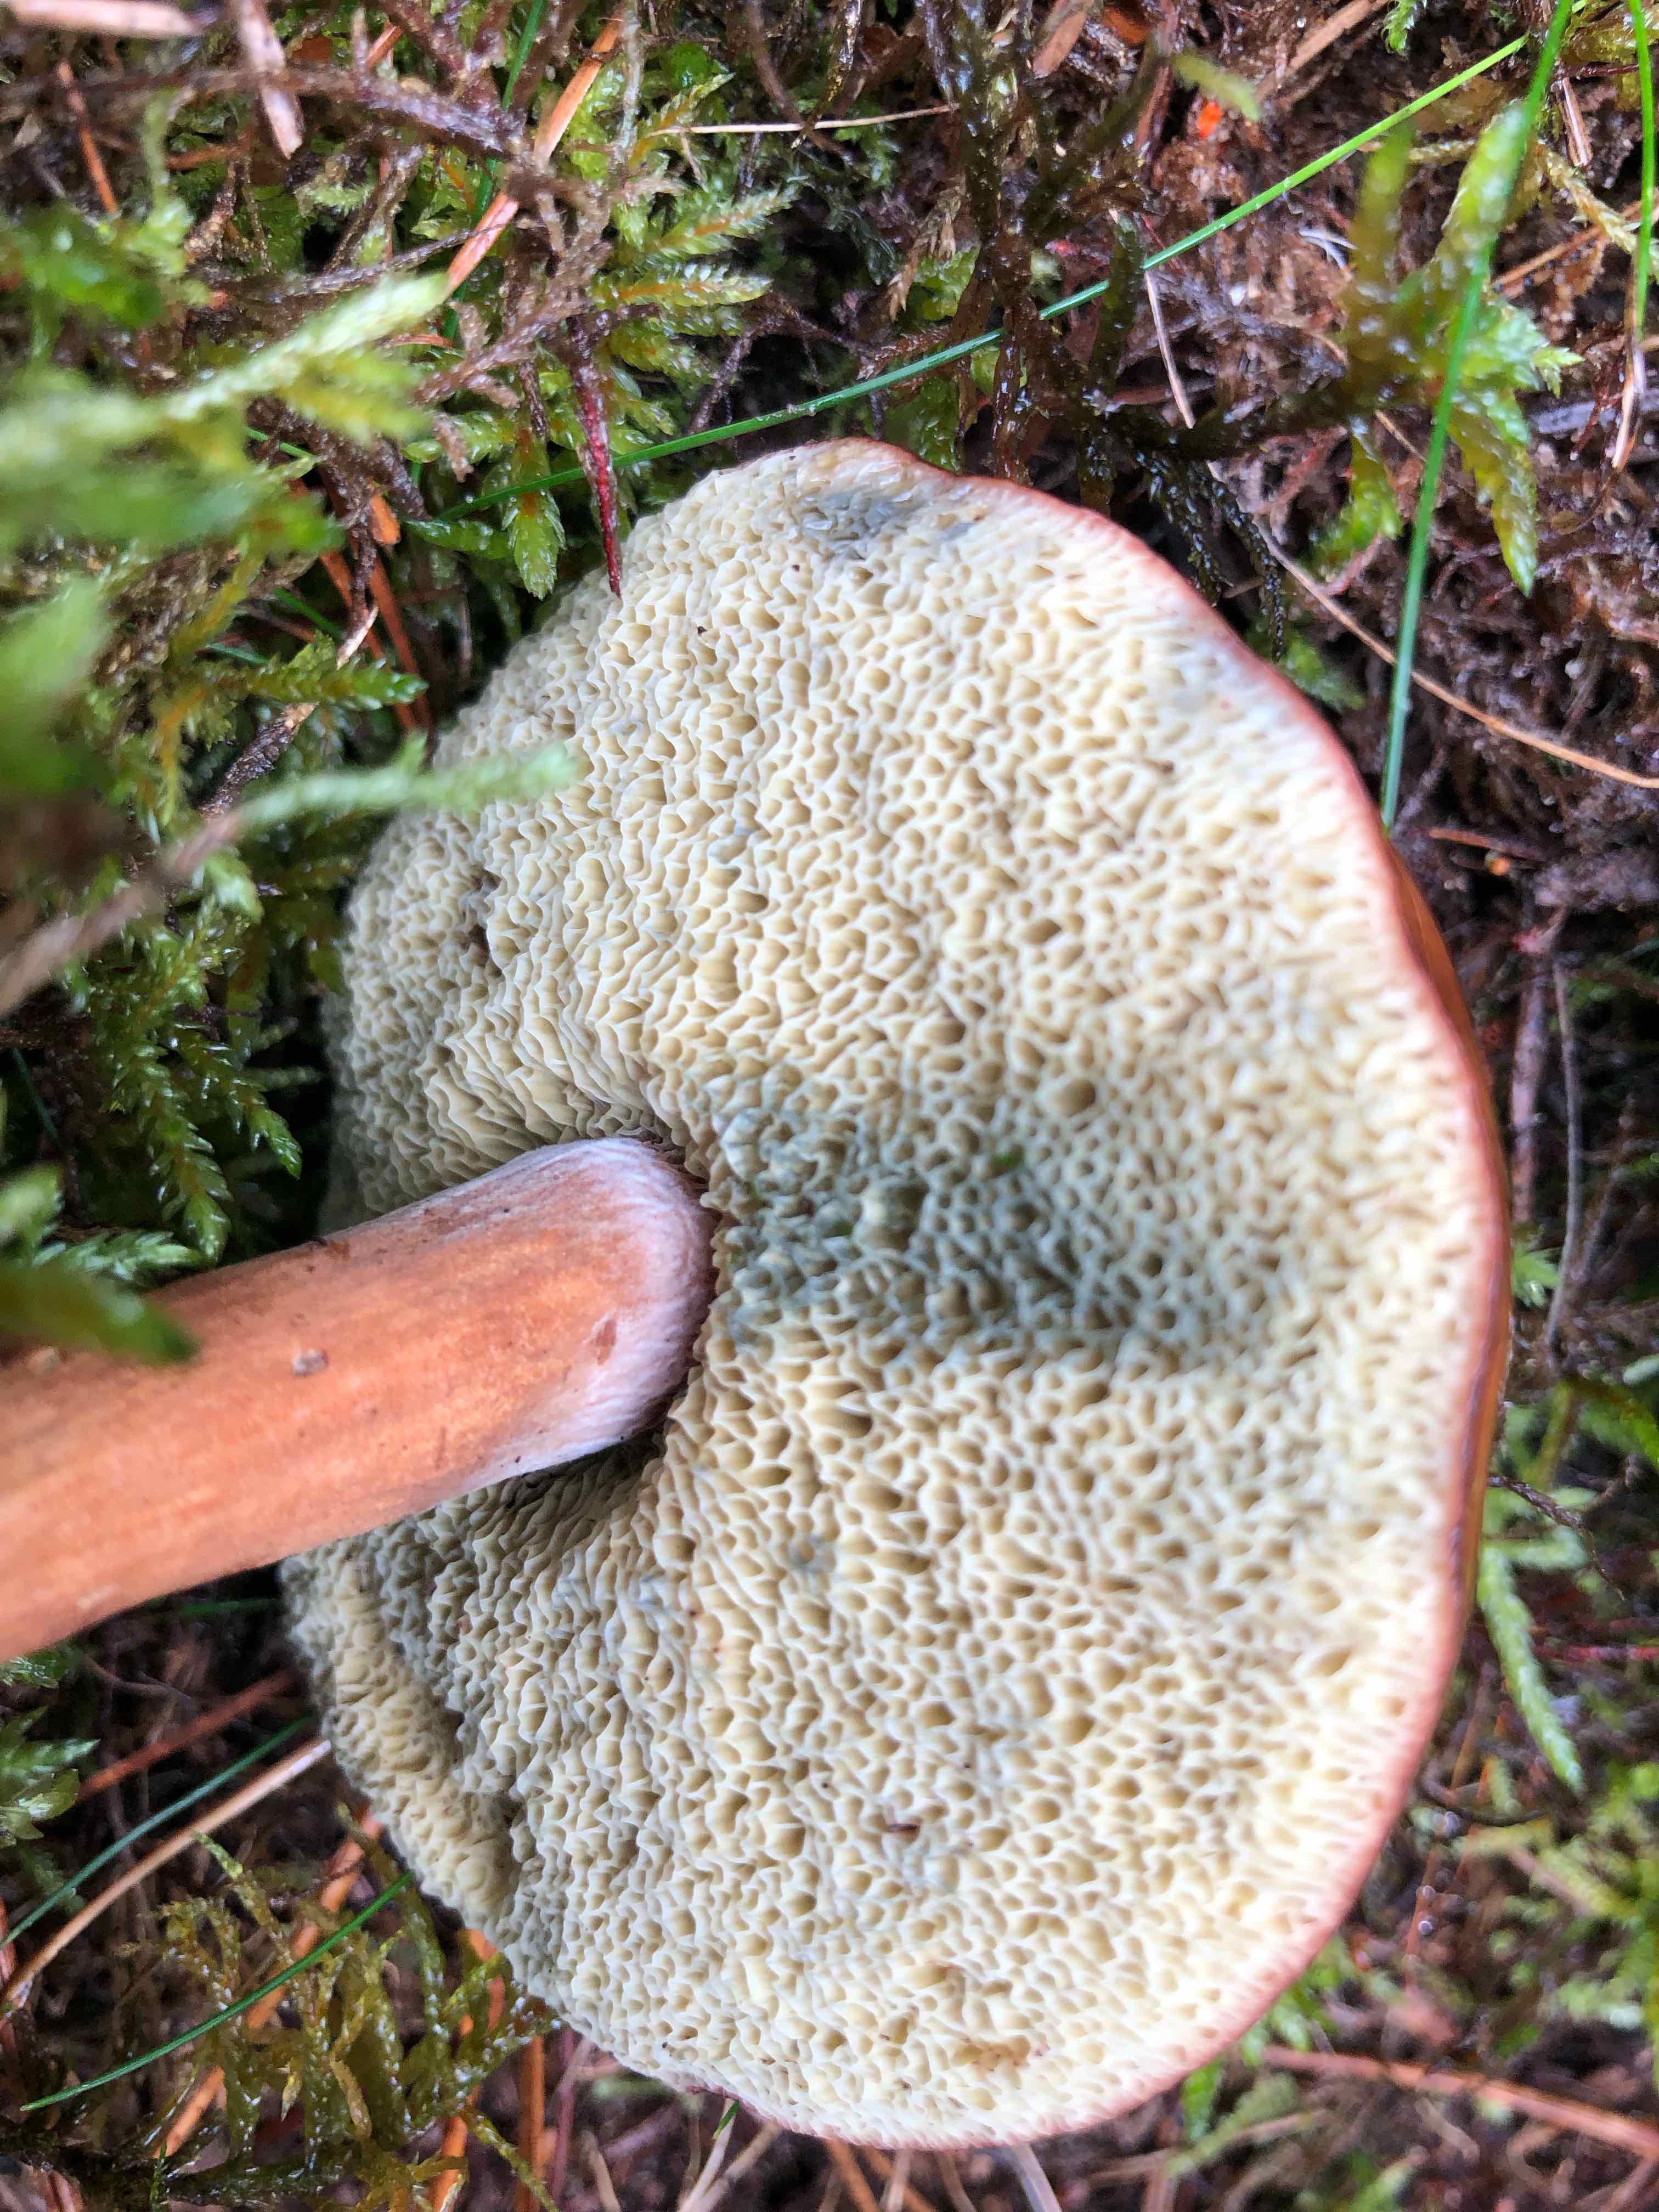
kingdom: Fungi
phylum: Basidiomycota
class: Agaricomycetes
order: Boletales
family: Boletaceae
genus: Imleria
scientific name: Imleria badia
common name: brunstokket rørhat
